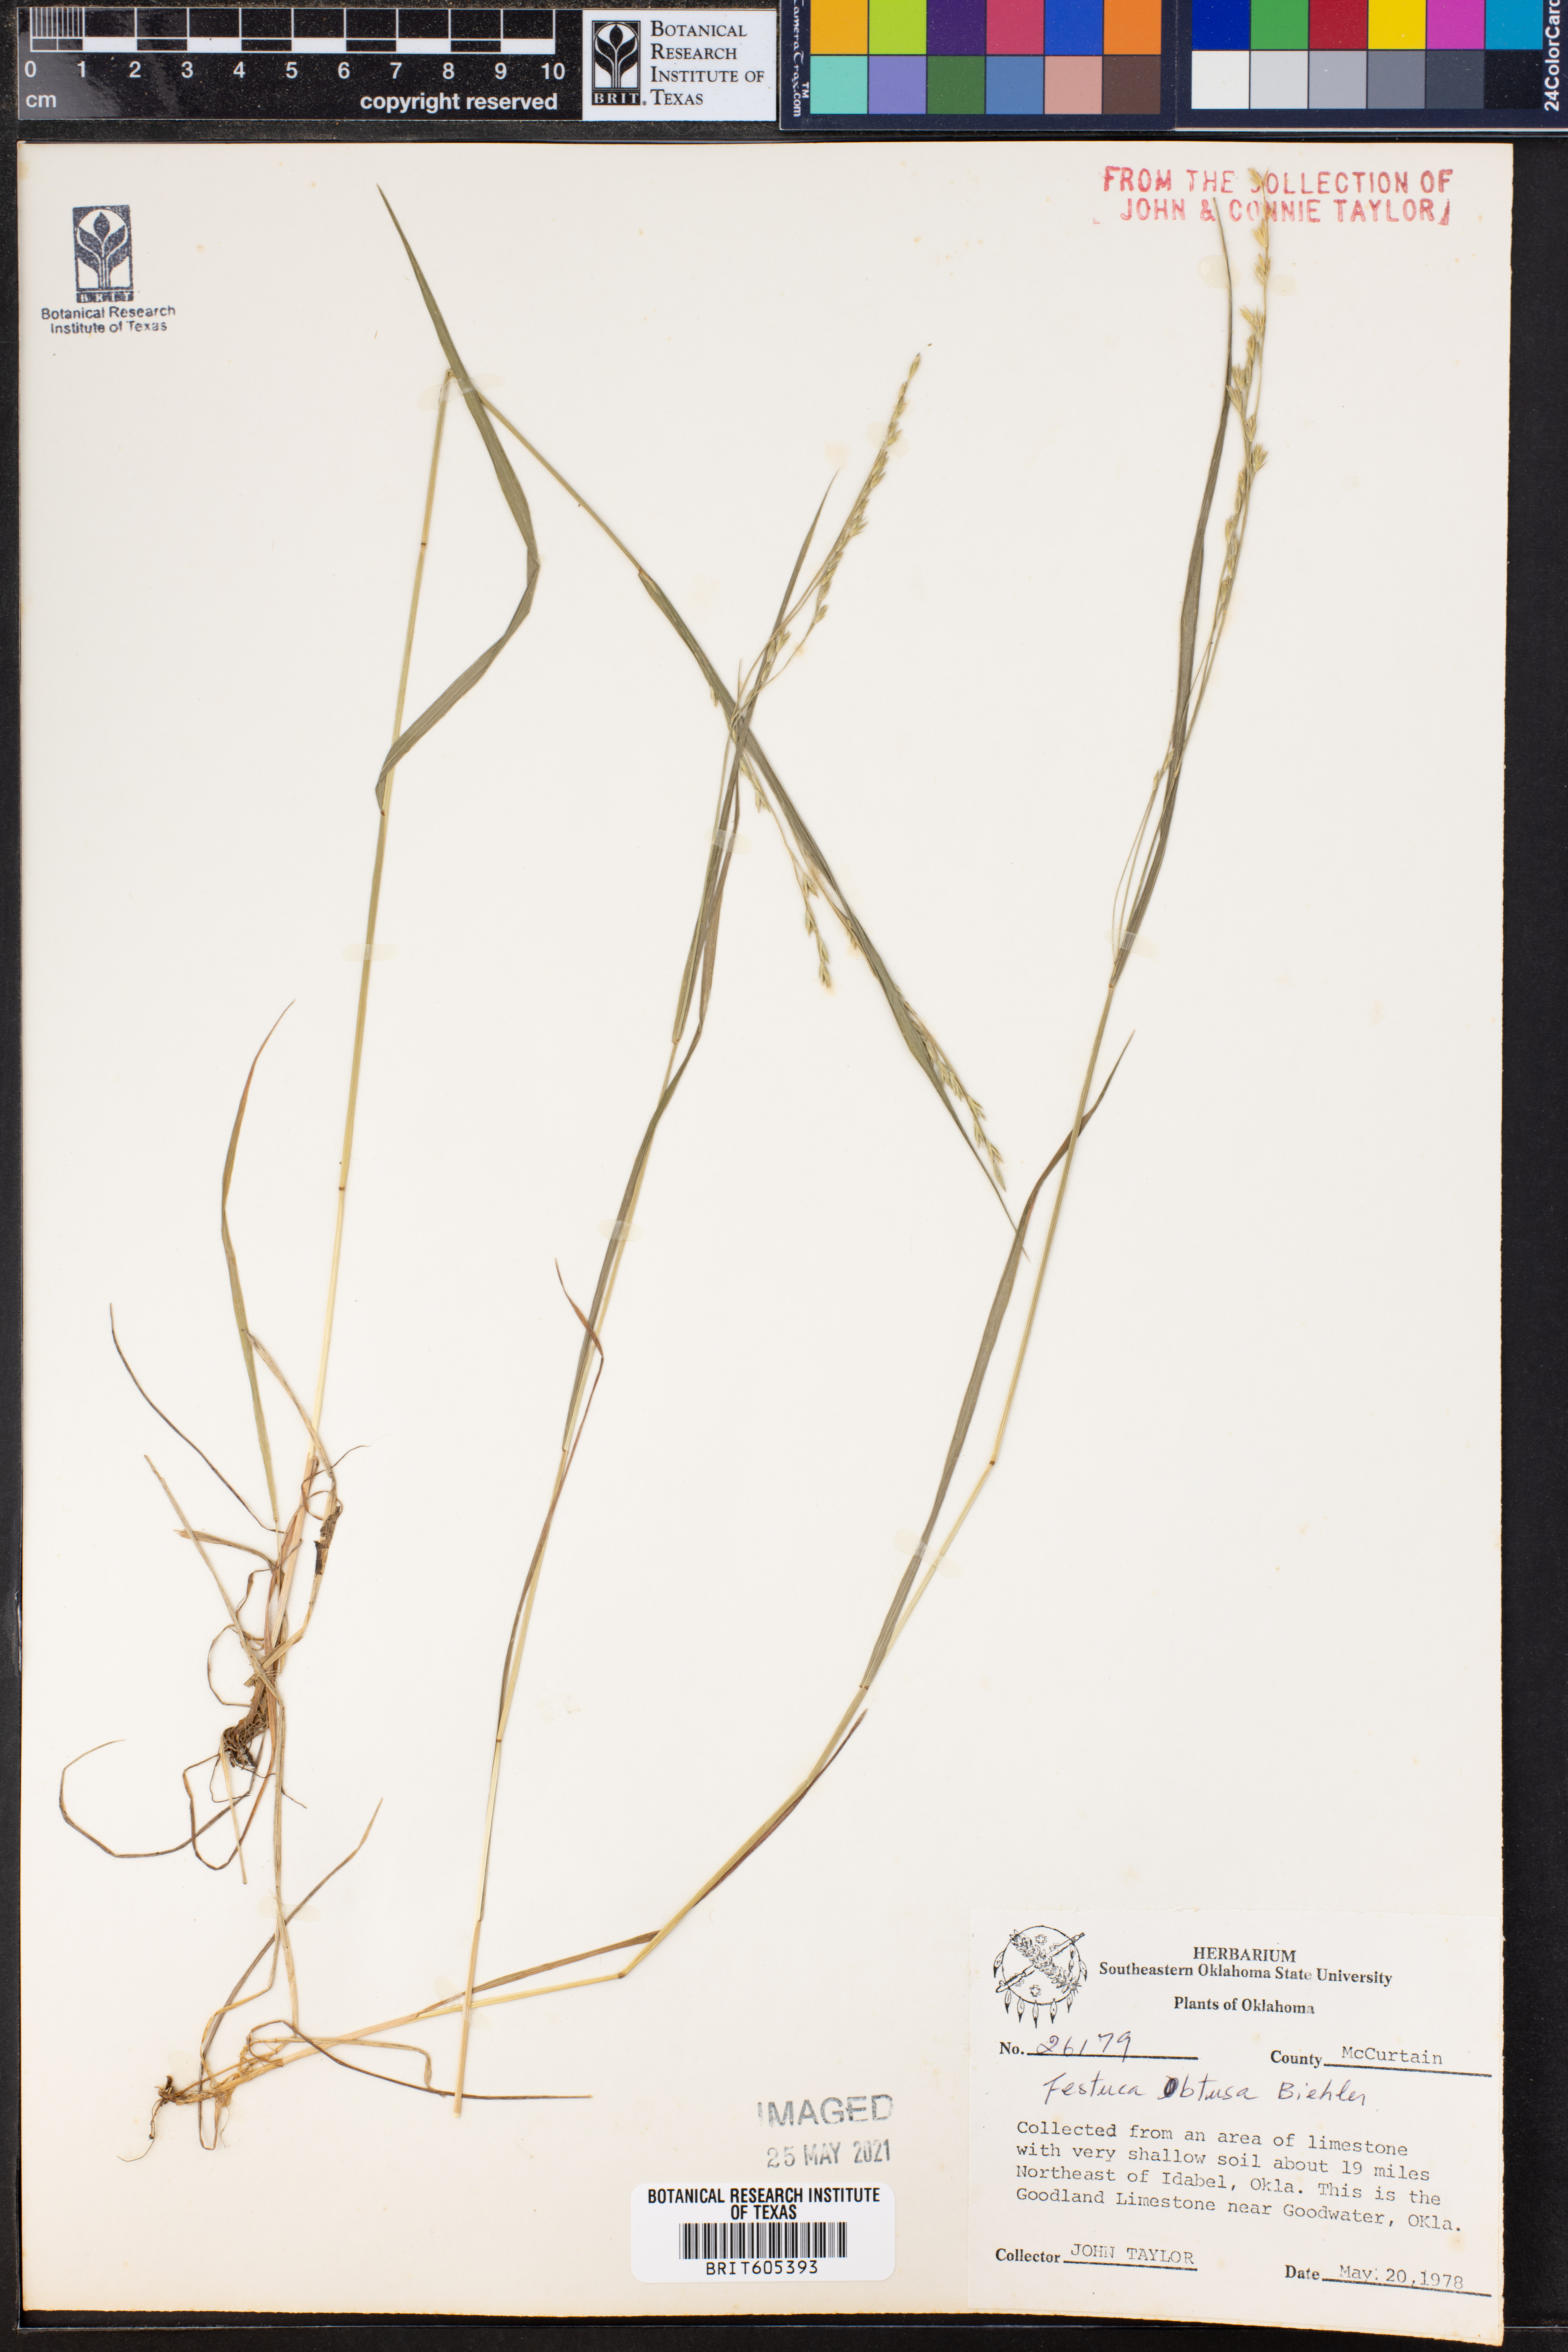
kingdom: Plantae
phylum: Tracheophyta
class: Liliopsida
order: Poales
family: Poaceae
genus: Festuca
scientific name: Festuca subverticillata
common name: Nodding fescue
